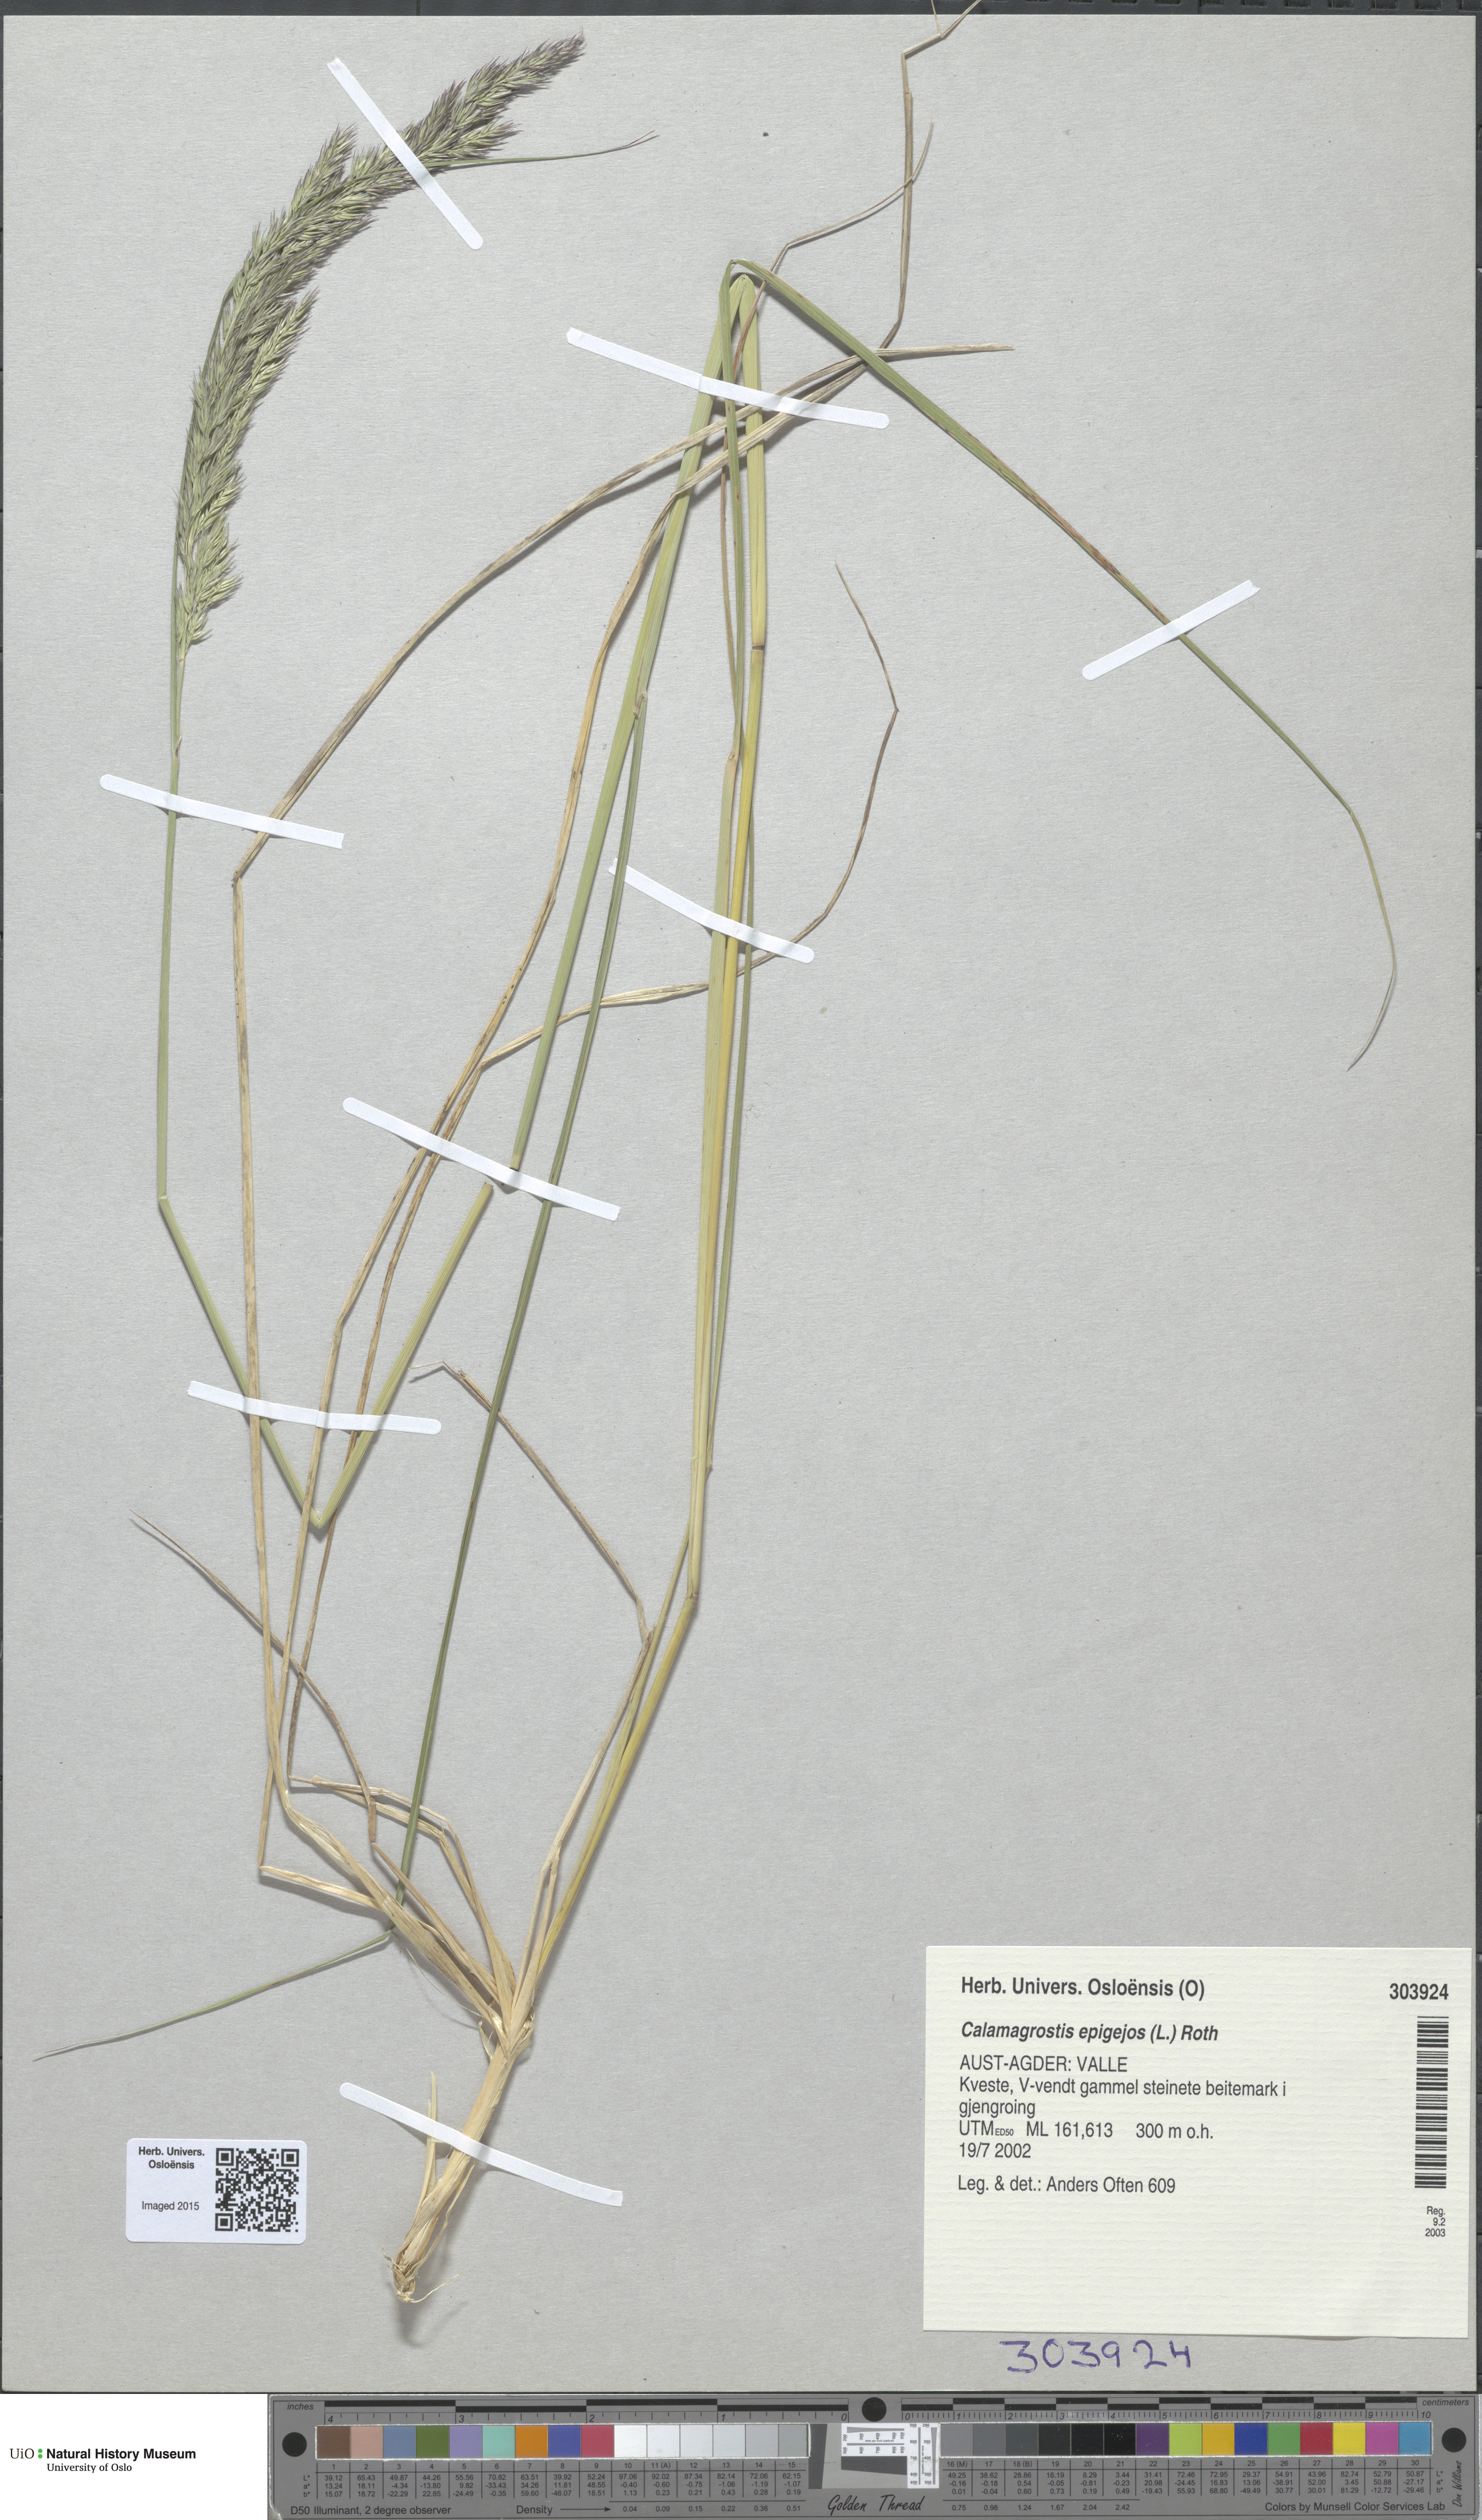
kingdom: Plantae
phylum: Tracheophyta
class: Liliopsida
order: Poales
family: Poaceae
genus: Calamagrostis
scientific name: Calamagrostis epigejos
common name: Wood small-reed
